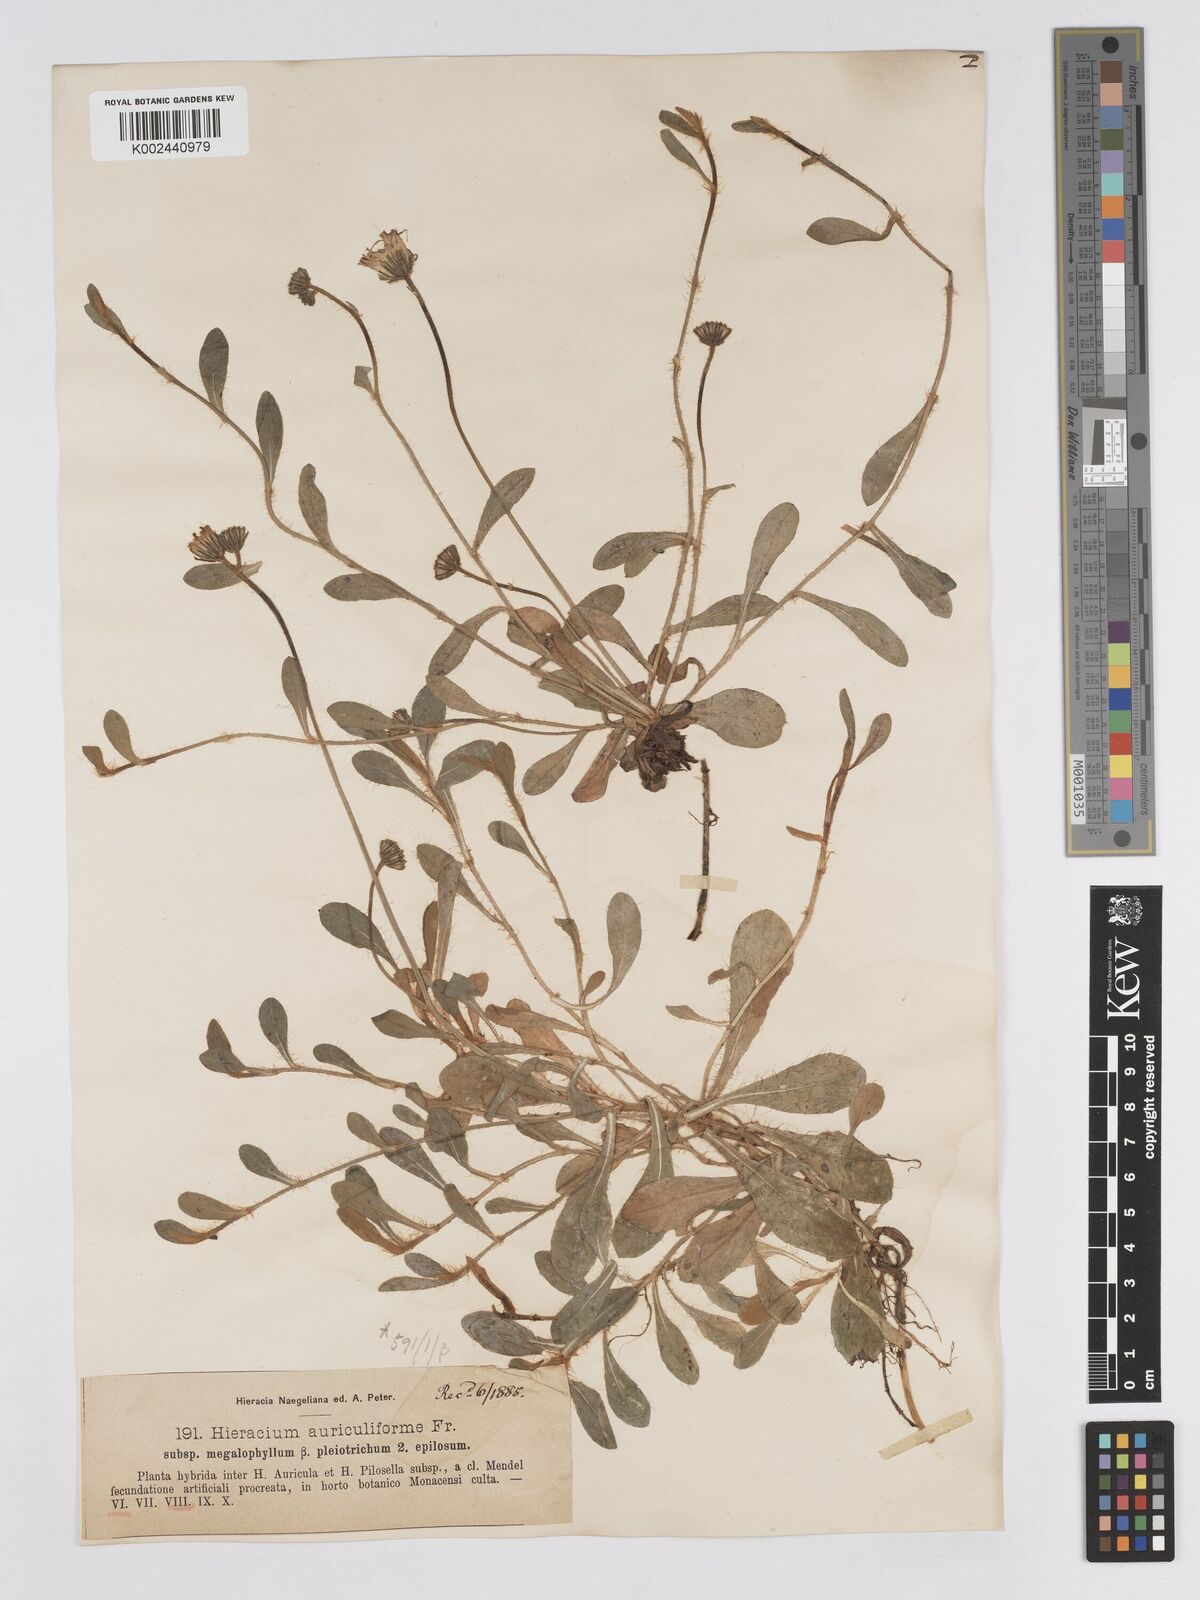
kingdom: Plantae
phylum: Tracheophyta
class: Magnoliopsida
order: Asterales
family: Asteraceae
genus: Pilosella
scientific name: Pilosella schultesii
